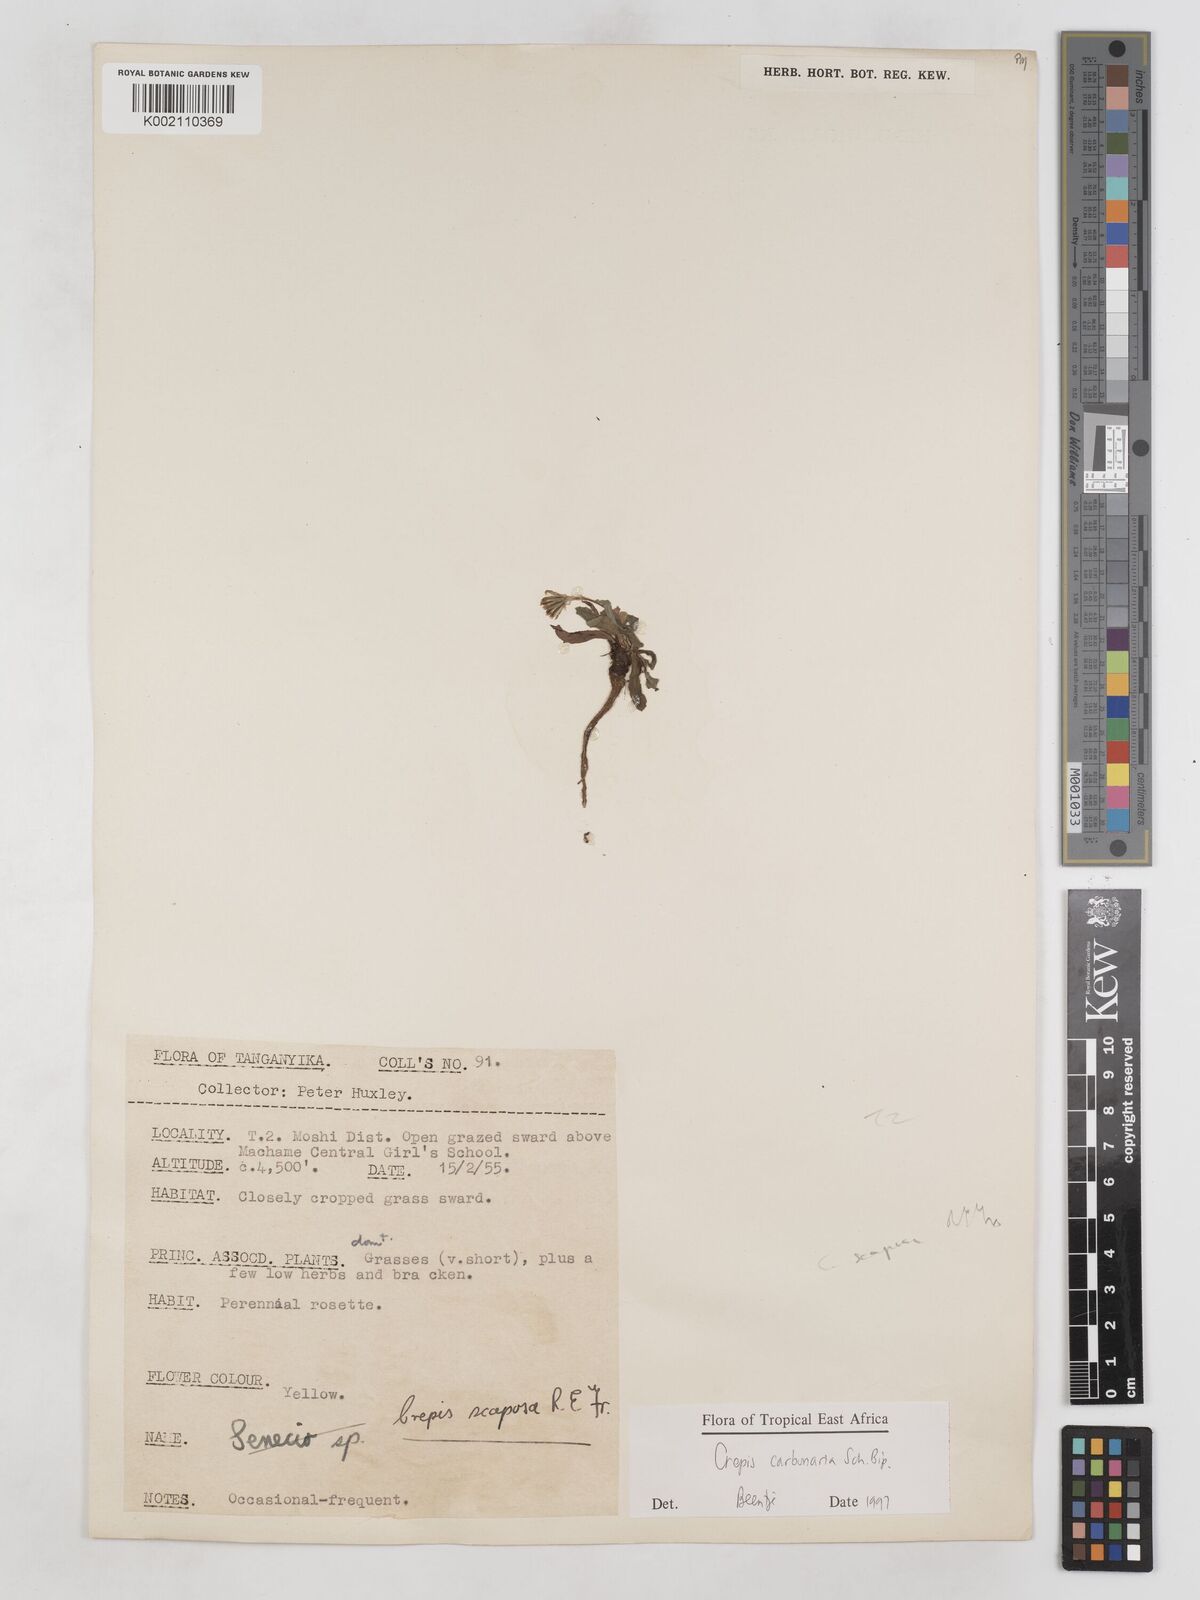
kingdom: Plantae
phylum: Tracheophyta
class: Magnoliopsida
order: Asterales
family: Asteraceae
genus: Crepis
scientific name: Crepis carbonaria
